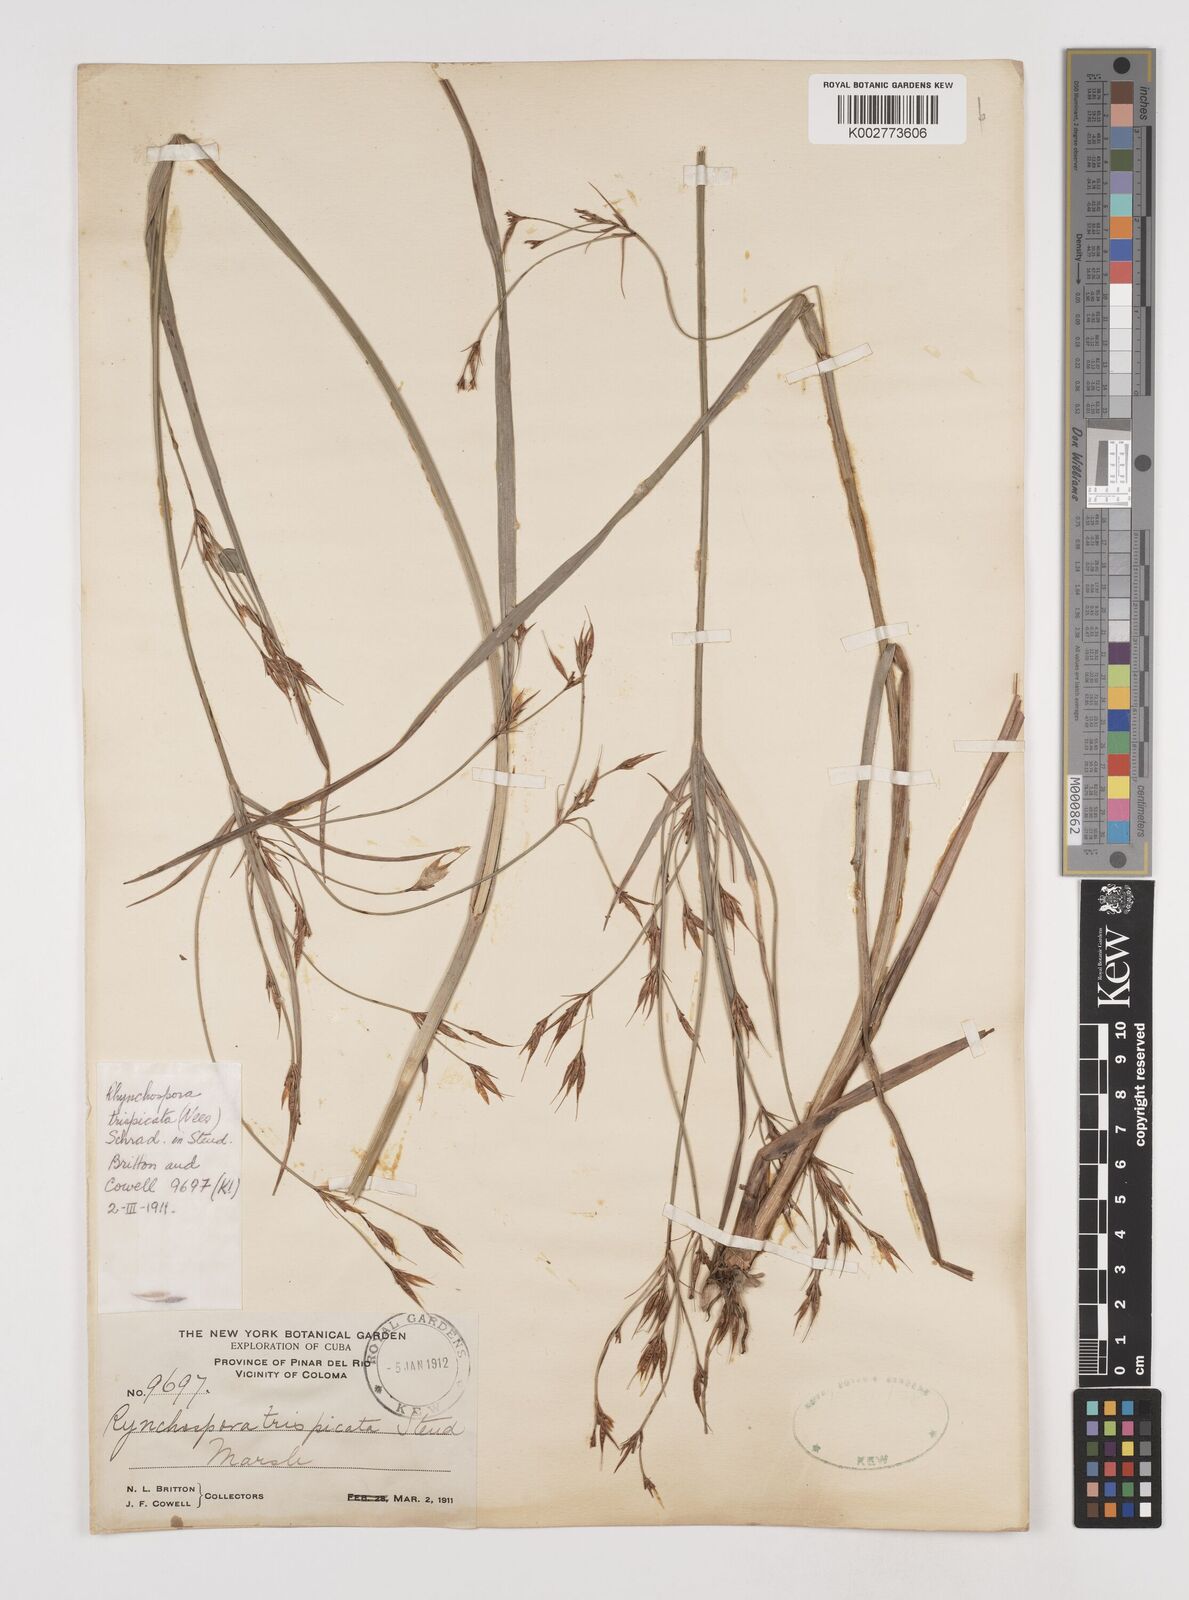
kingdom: Plantae
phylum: Tracheophyta
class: Liliopsida
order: Poales
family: Cyperaceae
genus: Rhynchospora
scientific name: Rhynchospora trispicata
